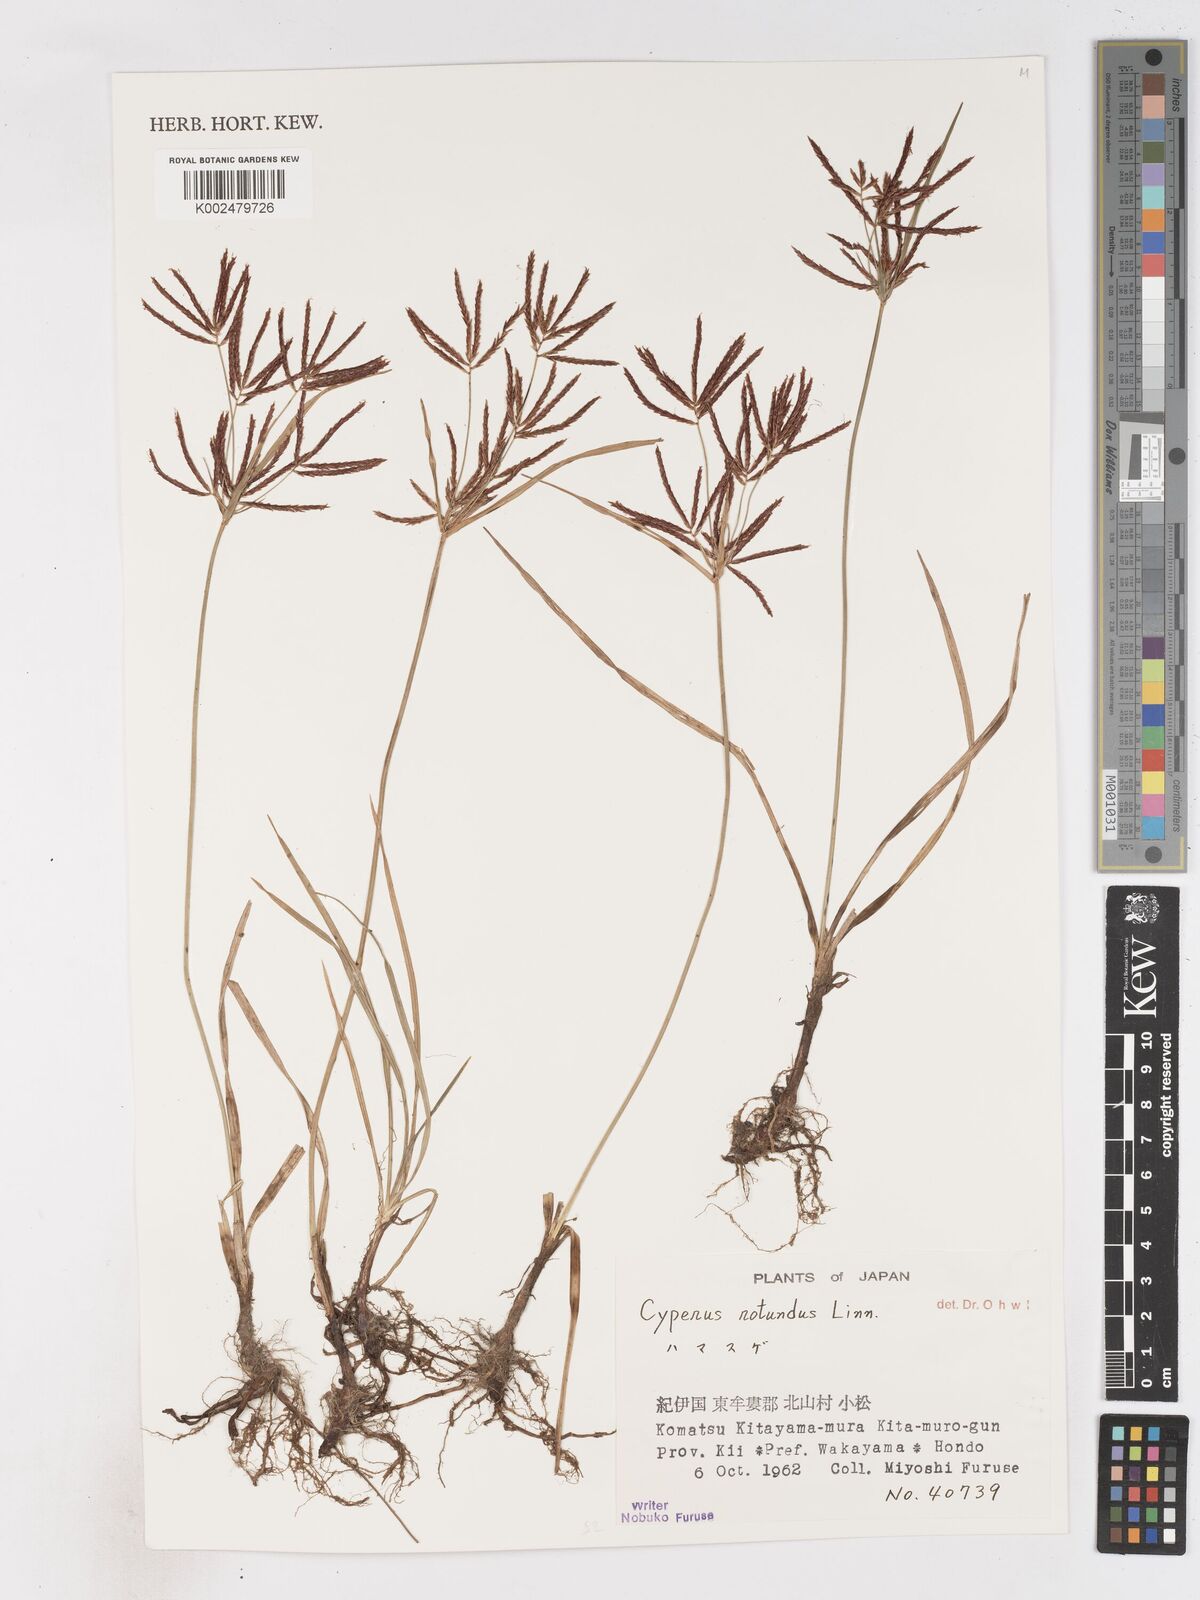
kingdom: Plantae
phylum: Tracheophyta
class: Liliopsida
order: Poales
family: Cyperaceae
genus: Cyperus
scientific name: Cyperus rotundus
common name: Nutgrass
